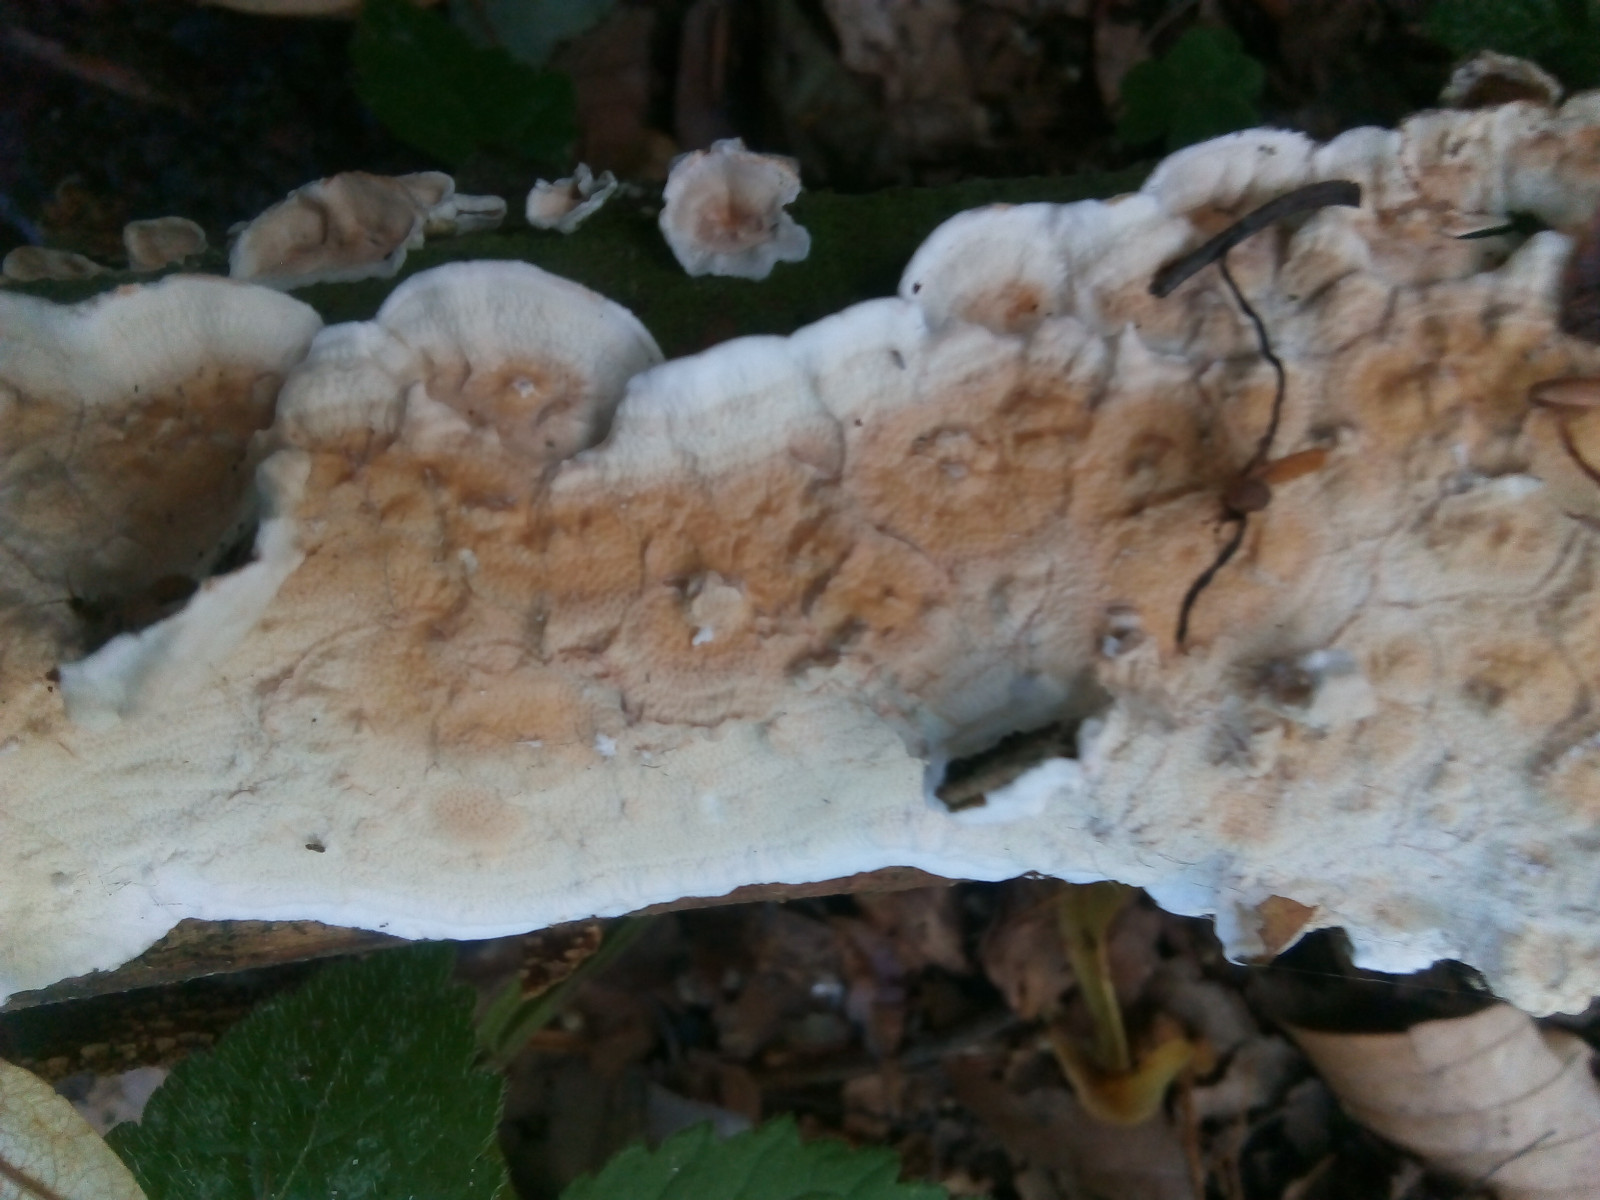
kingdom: Fungi
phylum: Basidiomycota
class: Agaricomycetes
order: Polyporales
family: Irpicaceae
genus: Byssomerulius
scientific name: Byssomerulius corium
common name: læder-åresvamp
